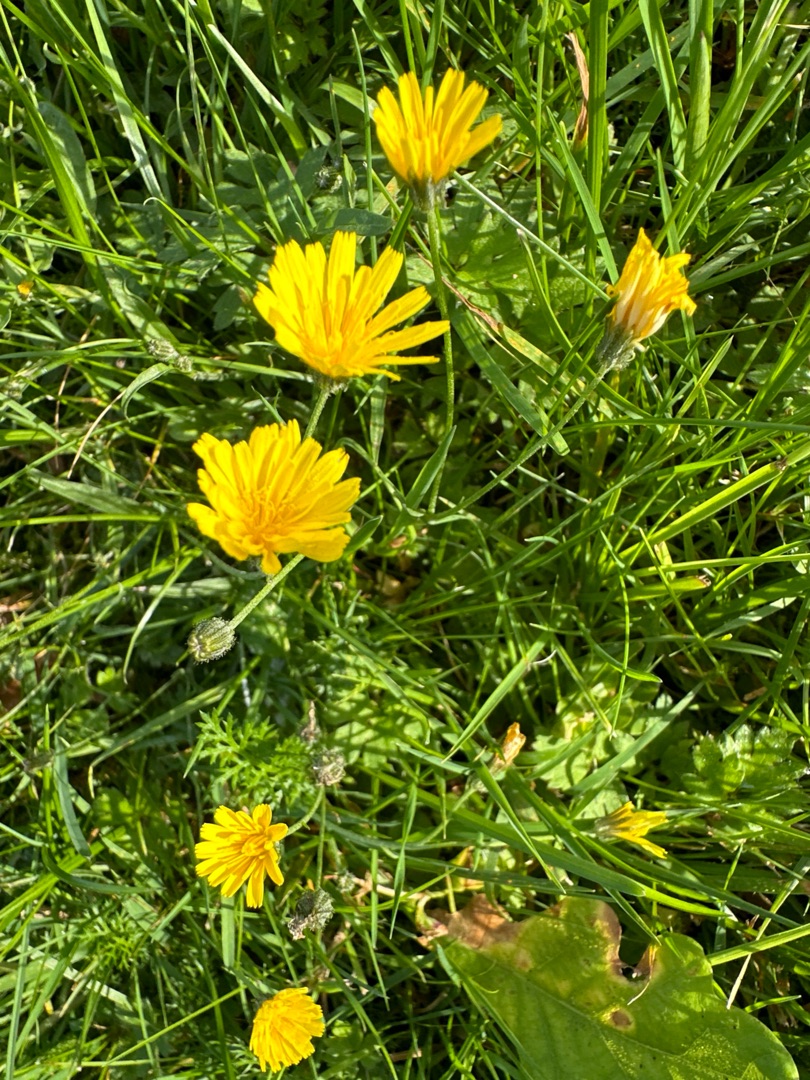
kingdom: Plantae
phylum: Tracheophyta
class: Magnoliopsida
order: Asterales
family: Asteraceae
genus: Scorzoneroides
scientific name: Scorzoneroides autumnalis
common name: Høst-borst
